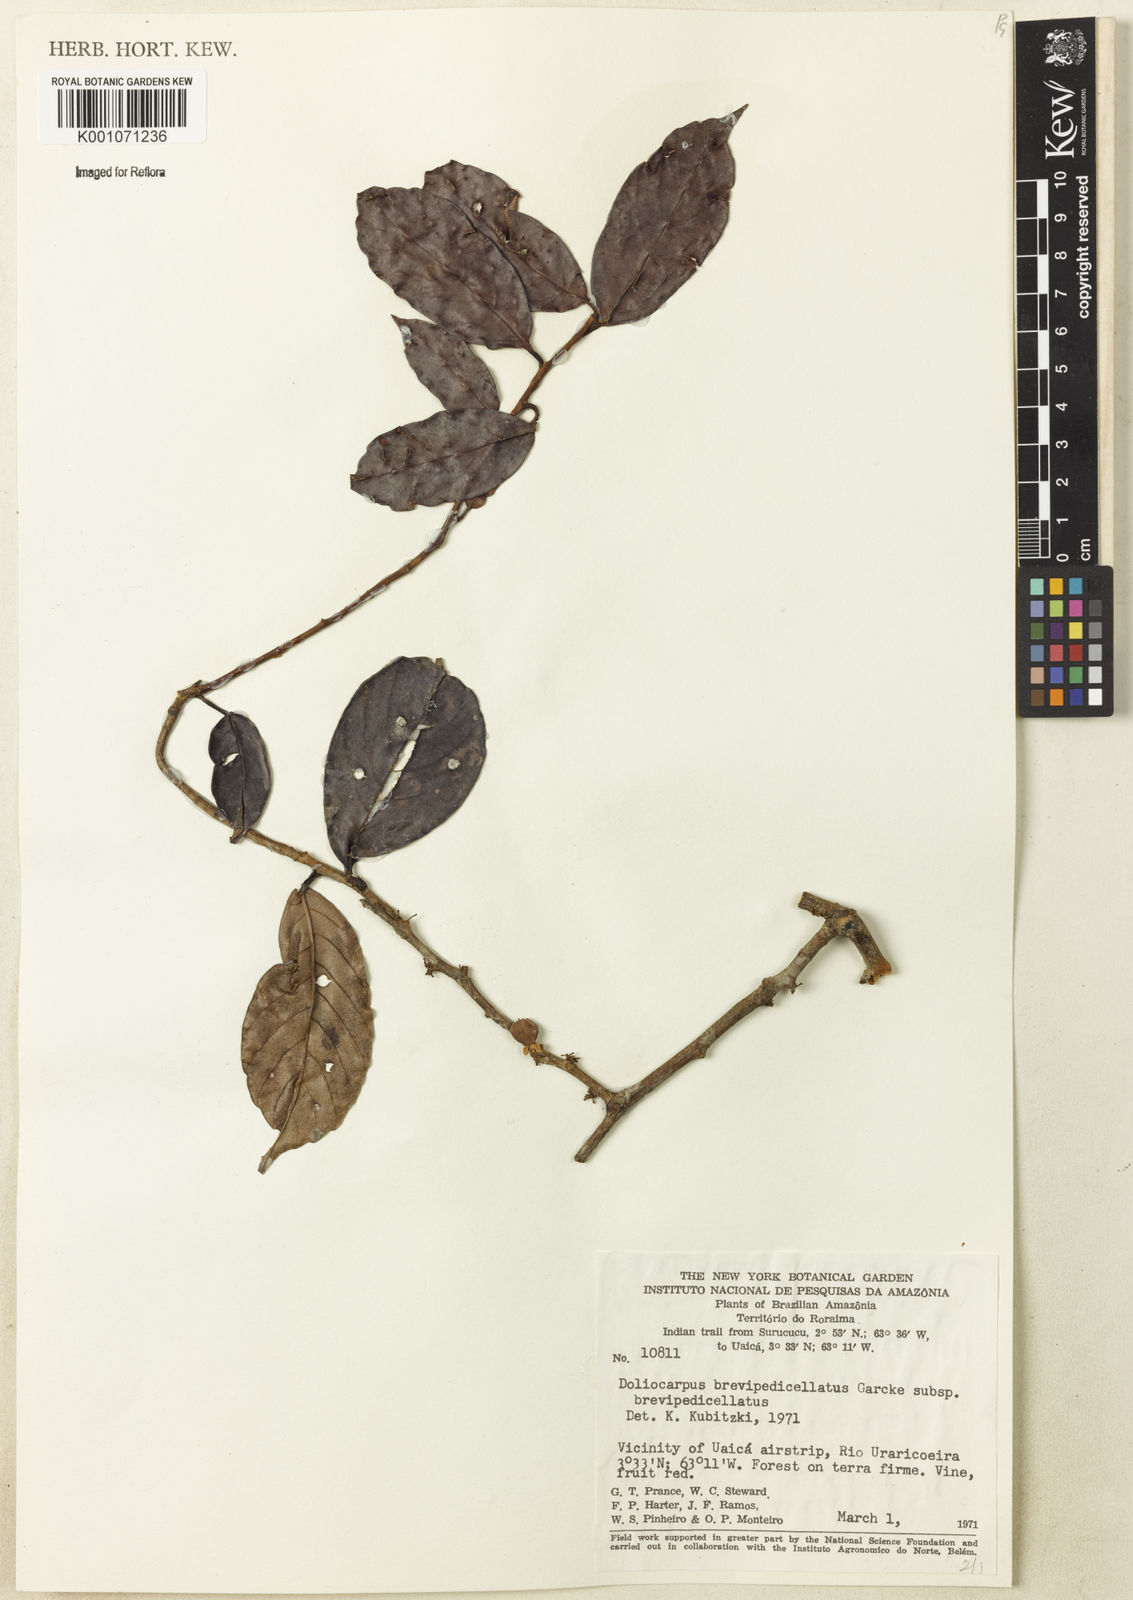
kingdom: Plantae
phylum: Tracheophyta
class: Magnoliopsida
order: Dilleniales
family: Dilleniaceae
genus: Doliocarpus
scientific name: Doliocarpus brevipedicellatus
